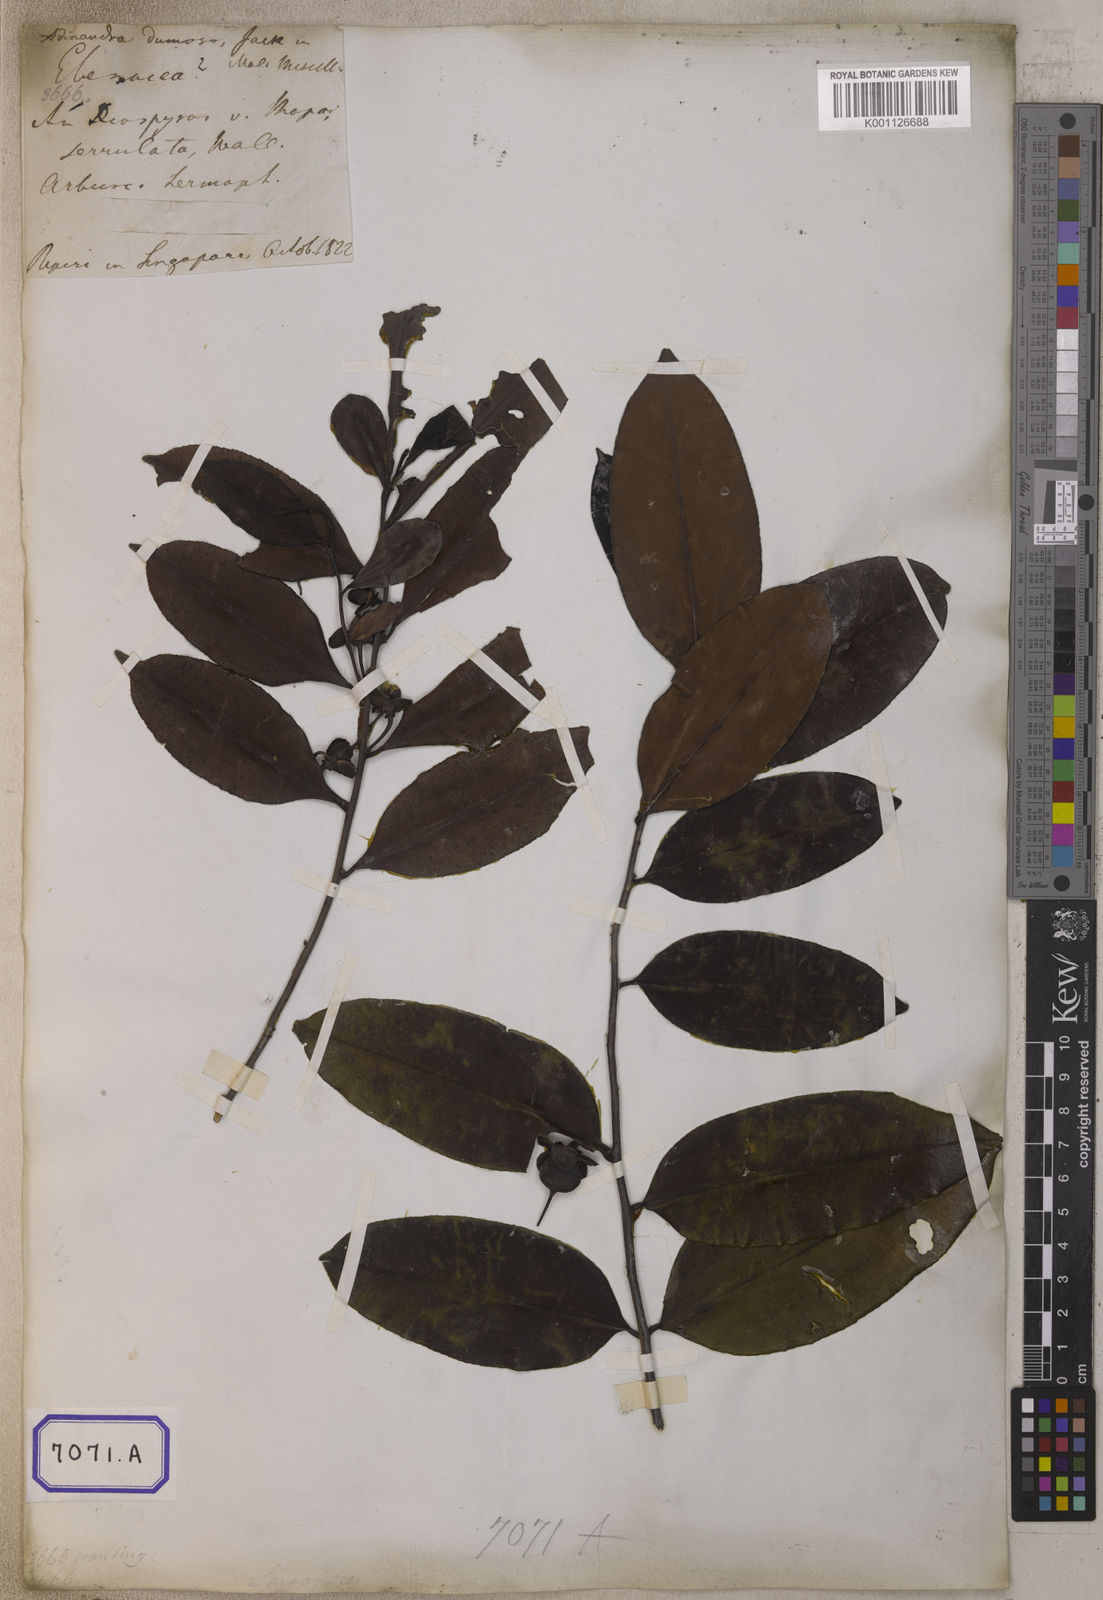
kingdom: Plantae
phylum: Tracheophyta
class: Magnoliopsida
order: Ericales
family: Pentaphylacaceae
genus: Adinandra
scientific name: Adinandra dumosa
